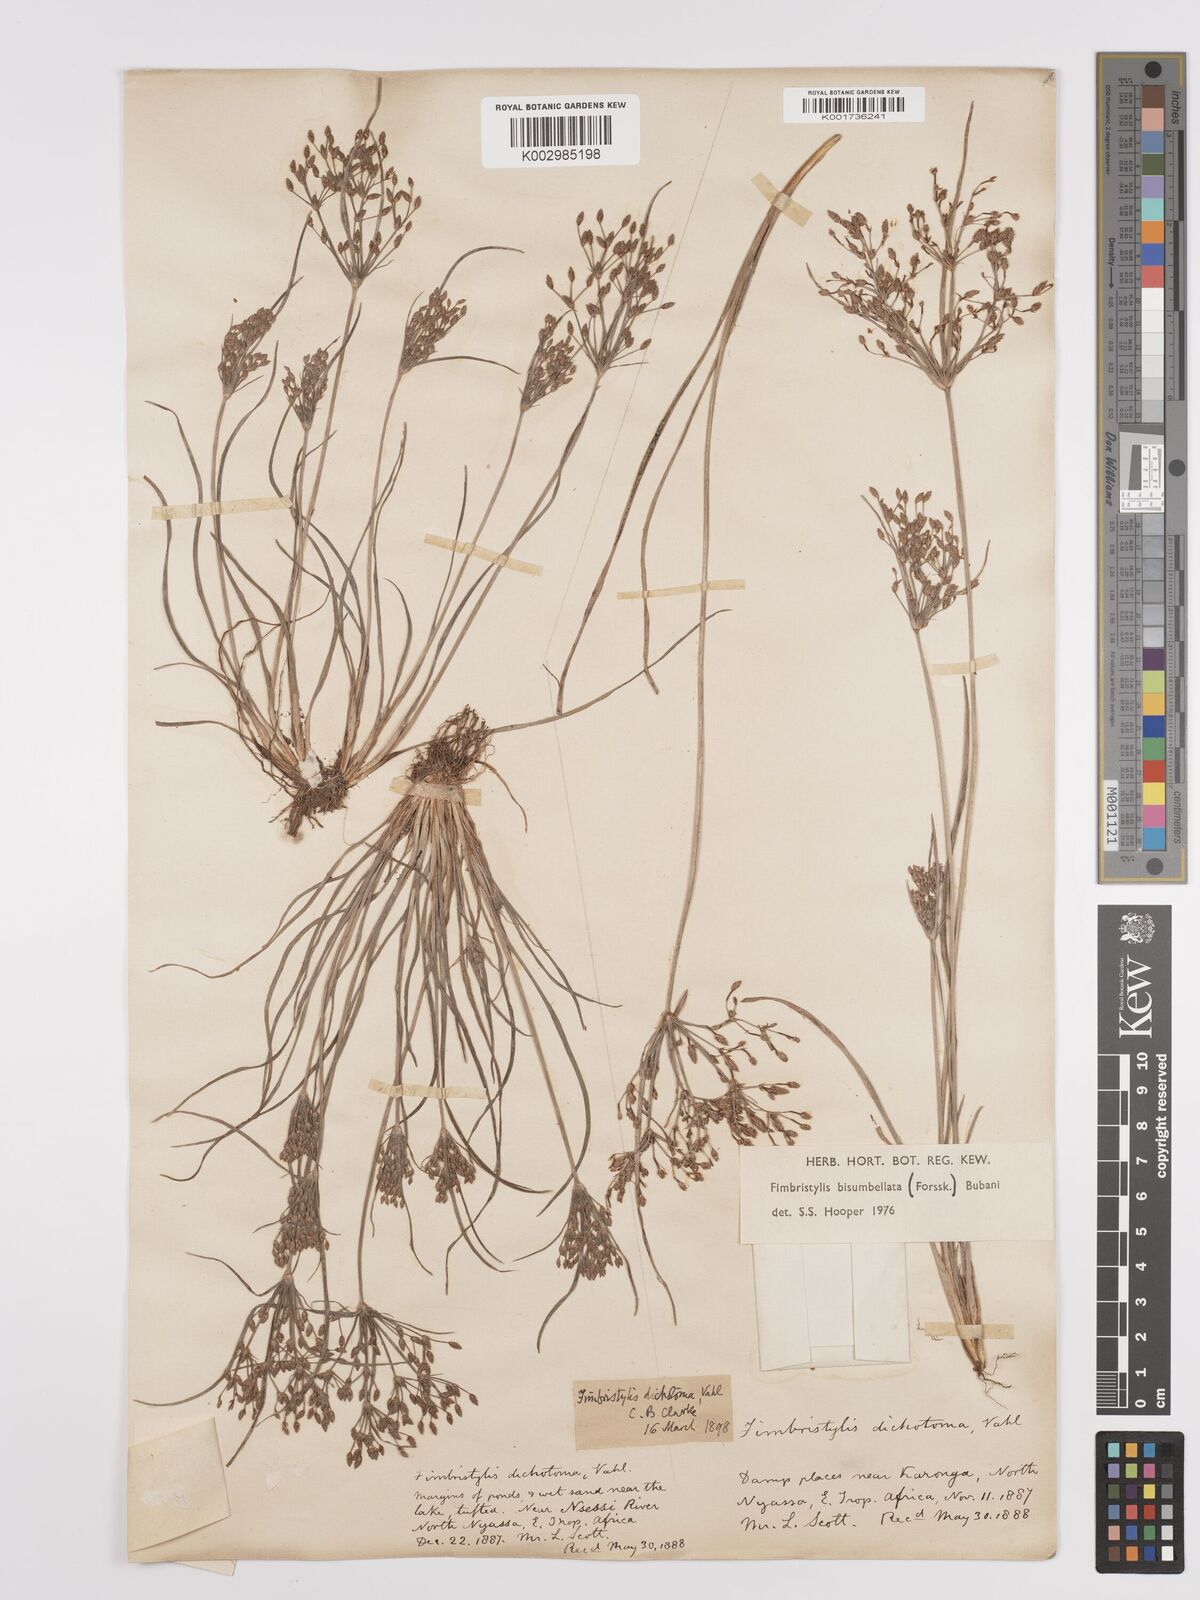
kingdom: Plantae
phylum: Tracheophyta
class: Liliopsida
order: Poales
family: Cyperaceae
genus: Fimbristylis
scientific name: Fimbristylis bisumbellata
